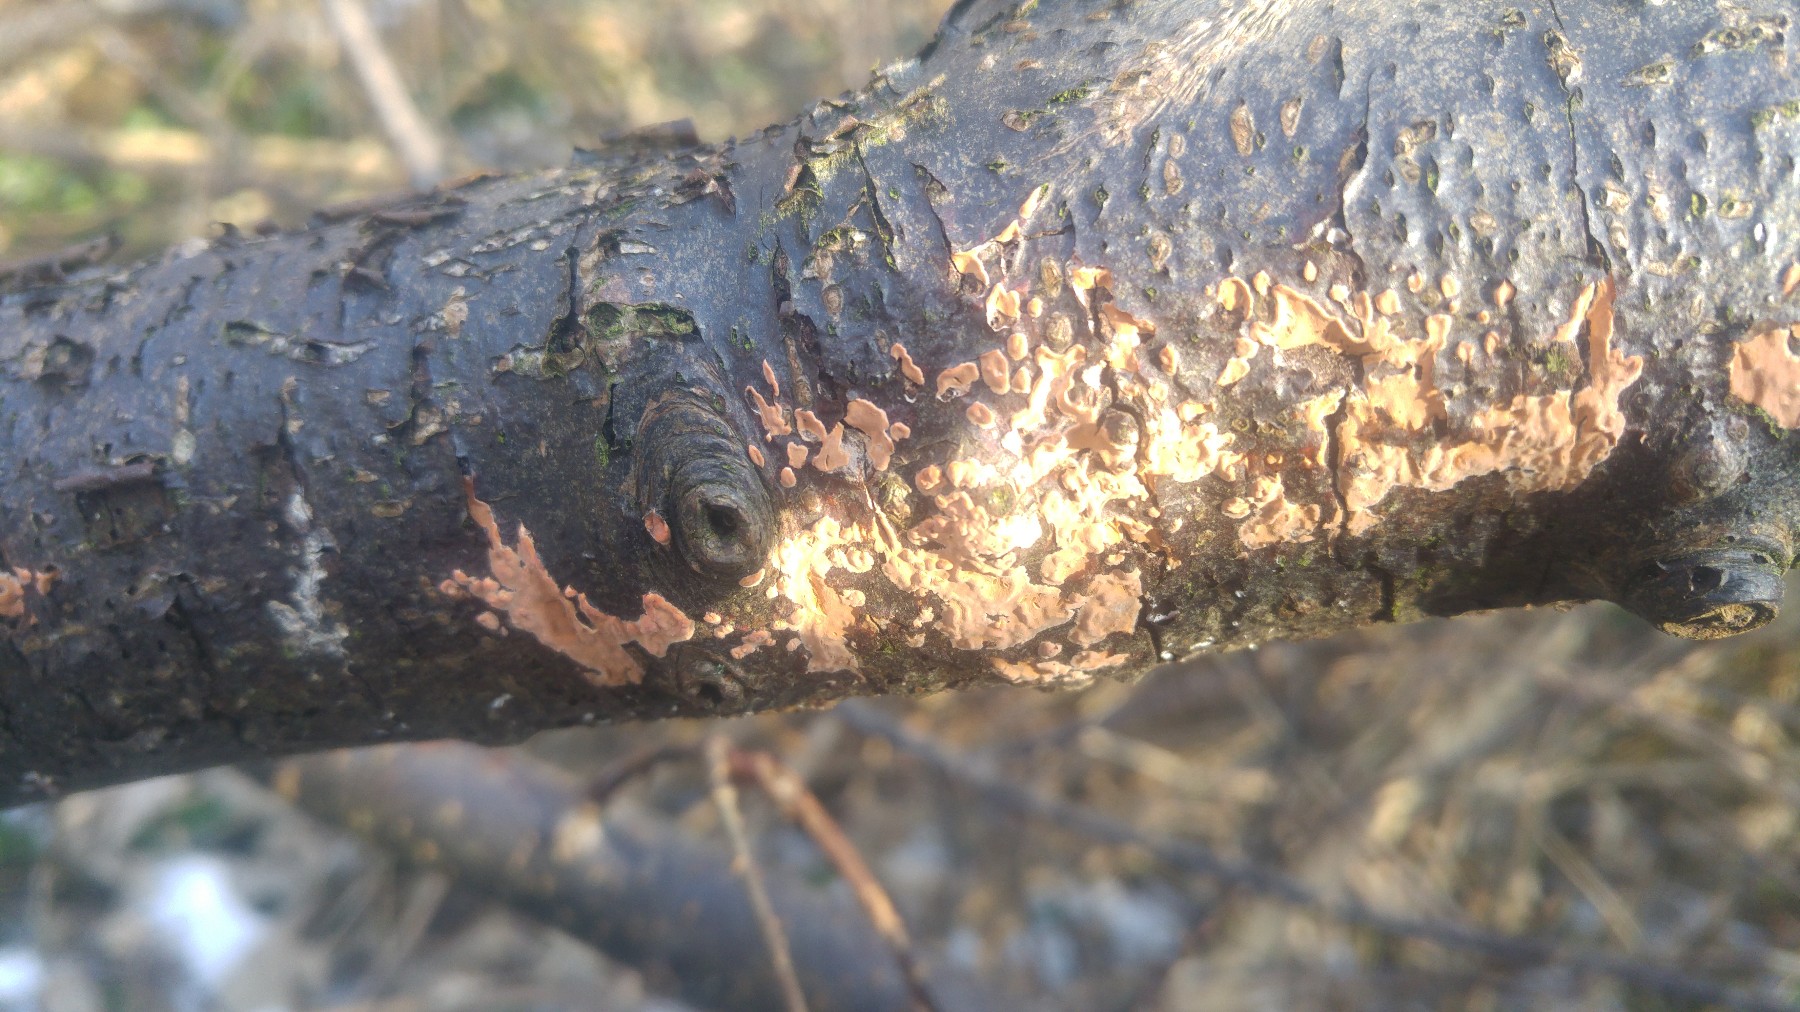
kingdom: Fungi
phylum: Basidiomycota
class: Agaricomycetes
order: Russulales
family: Stereaceae
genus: Stereum
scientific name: Stereum hirsutum
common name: håret lædersvamp
